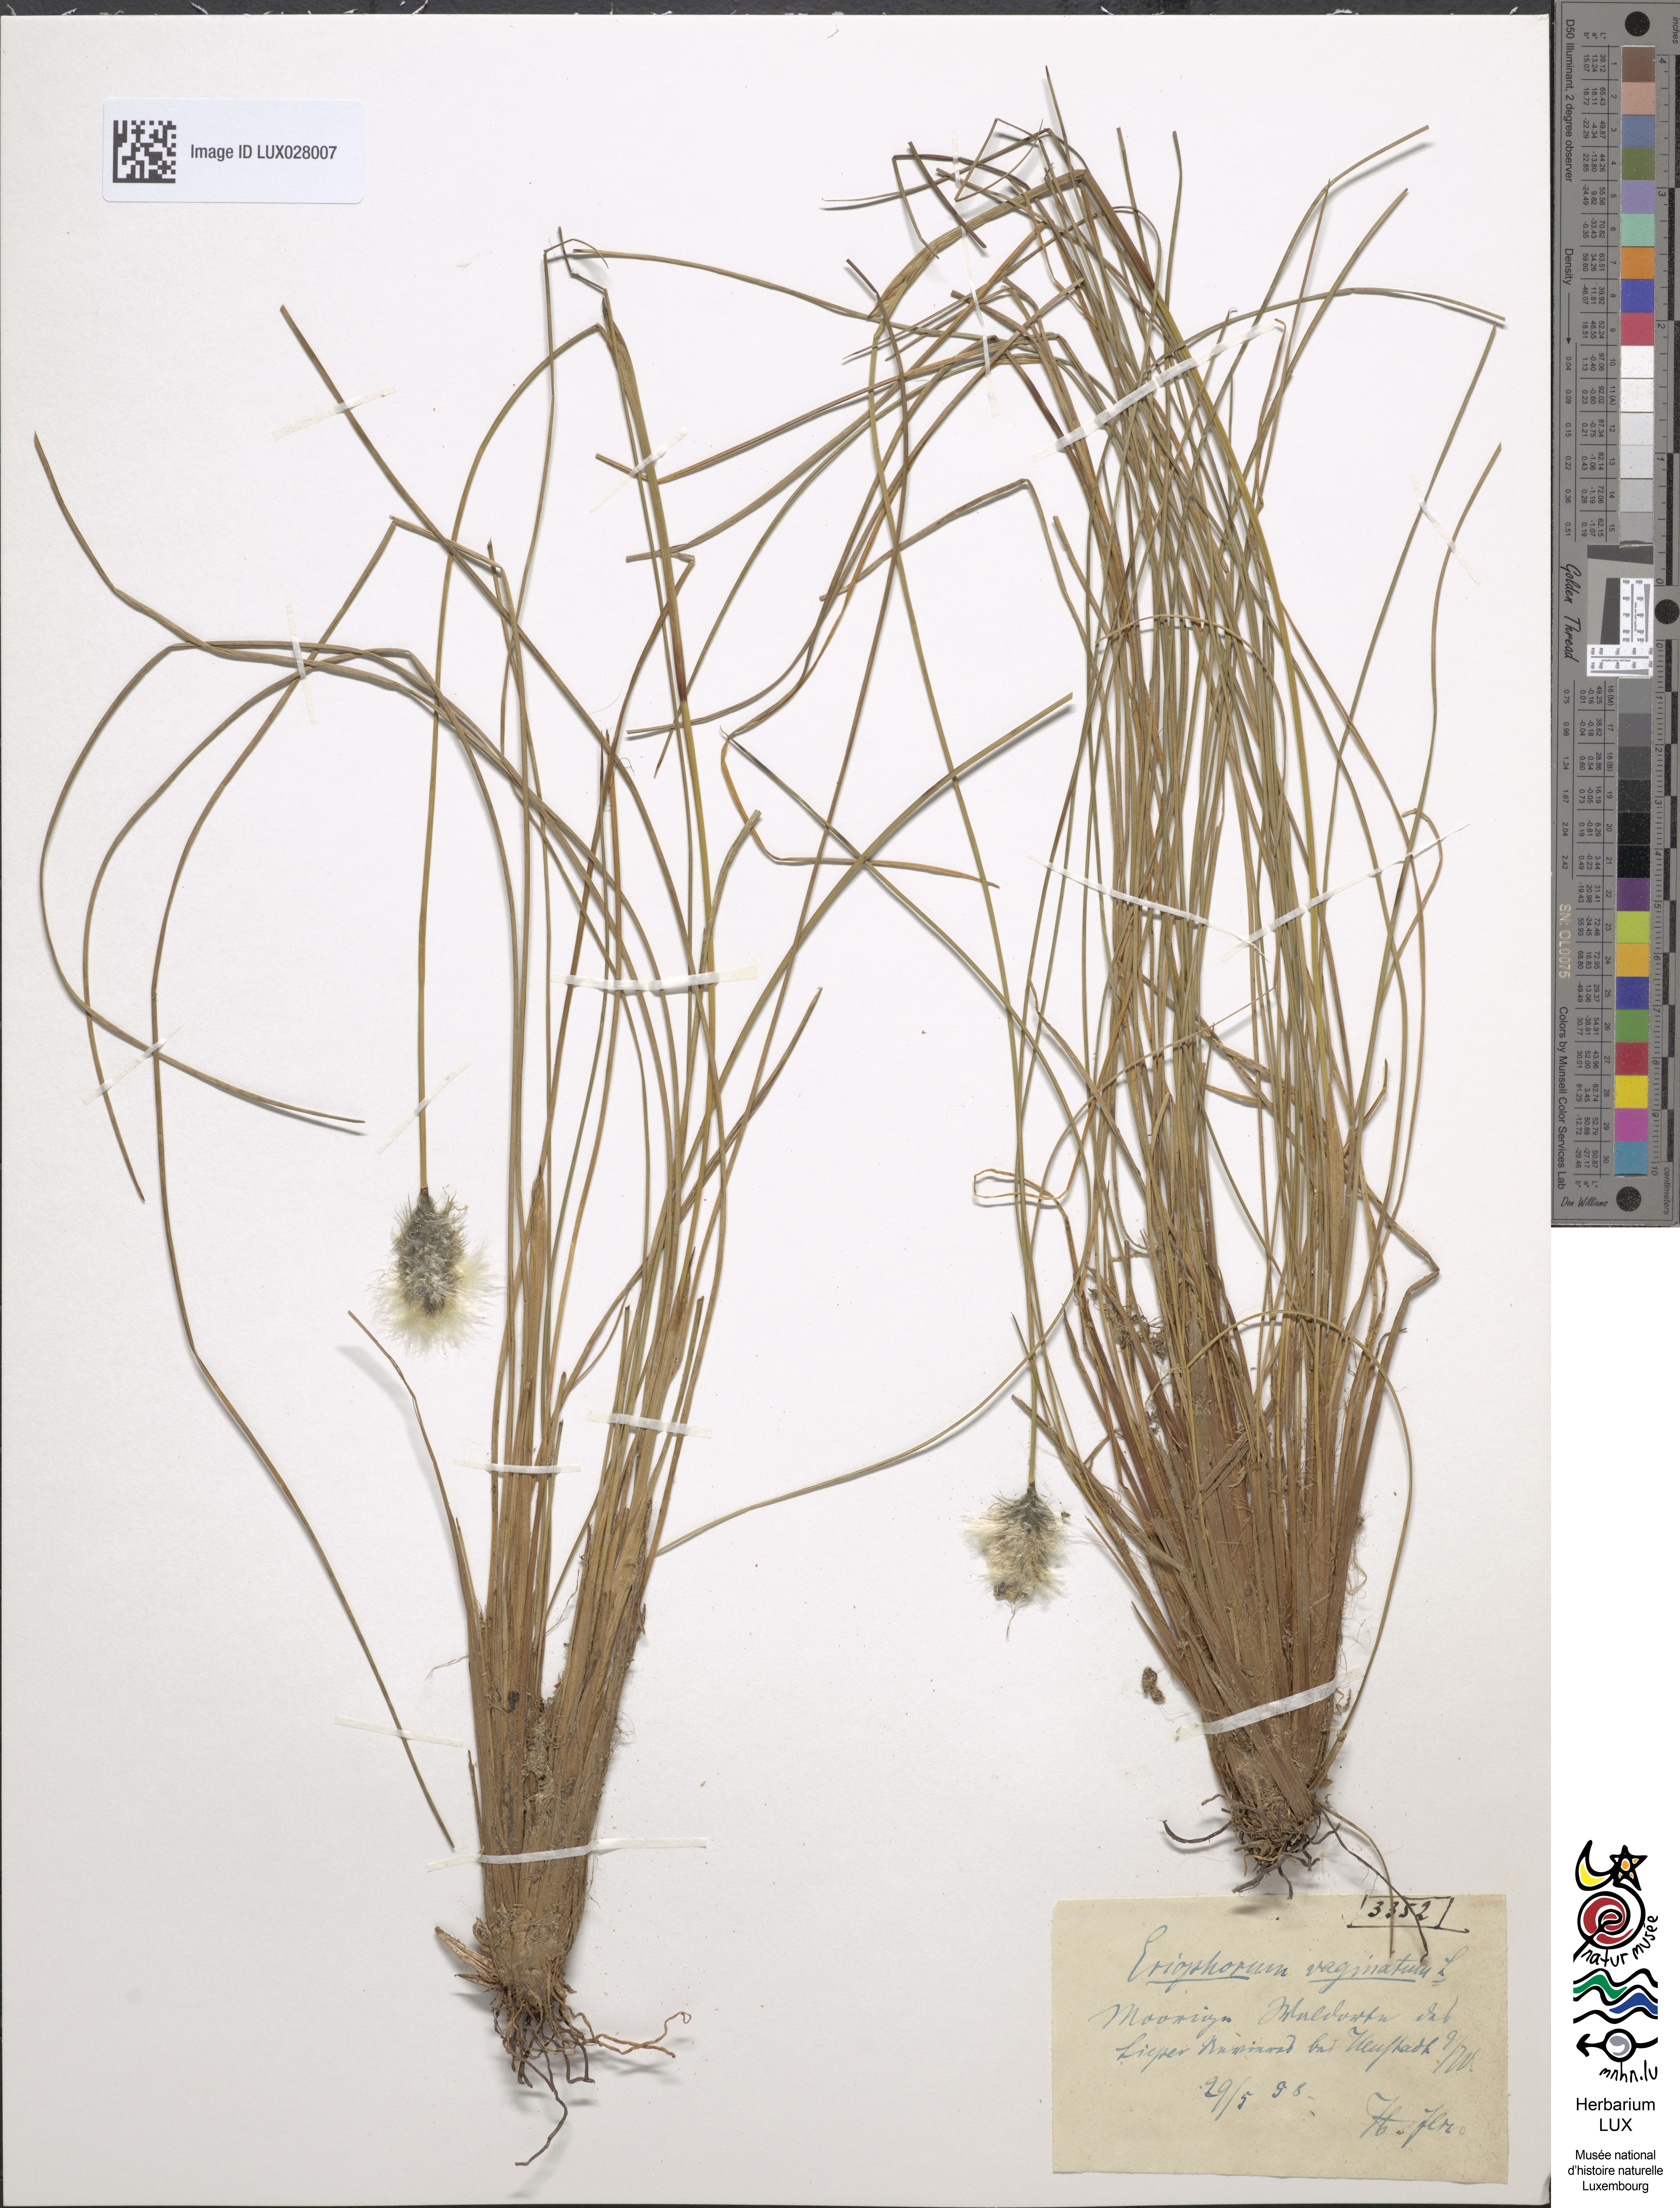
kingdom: Plantae
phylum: Tracheophyta
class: Liliopsida
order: Poales
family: Cyperaceae
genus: Eriophorum
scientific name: Eriophorum vaginatum
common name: Hare's-tail cottongrass
